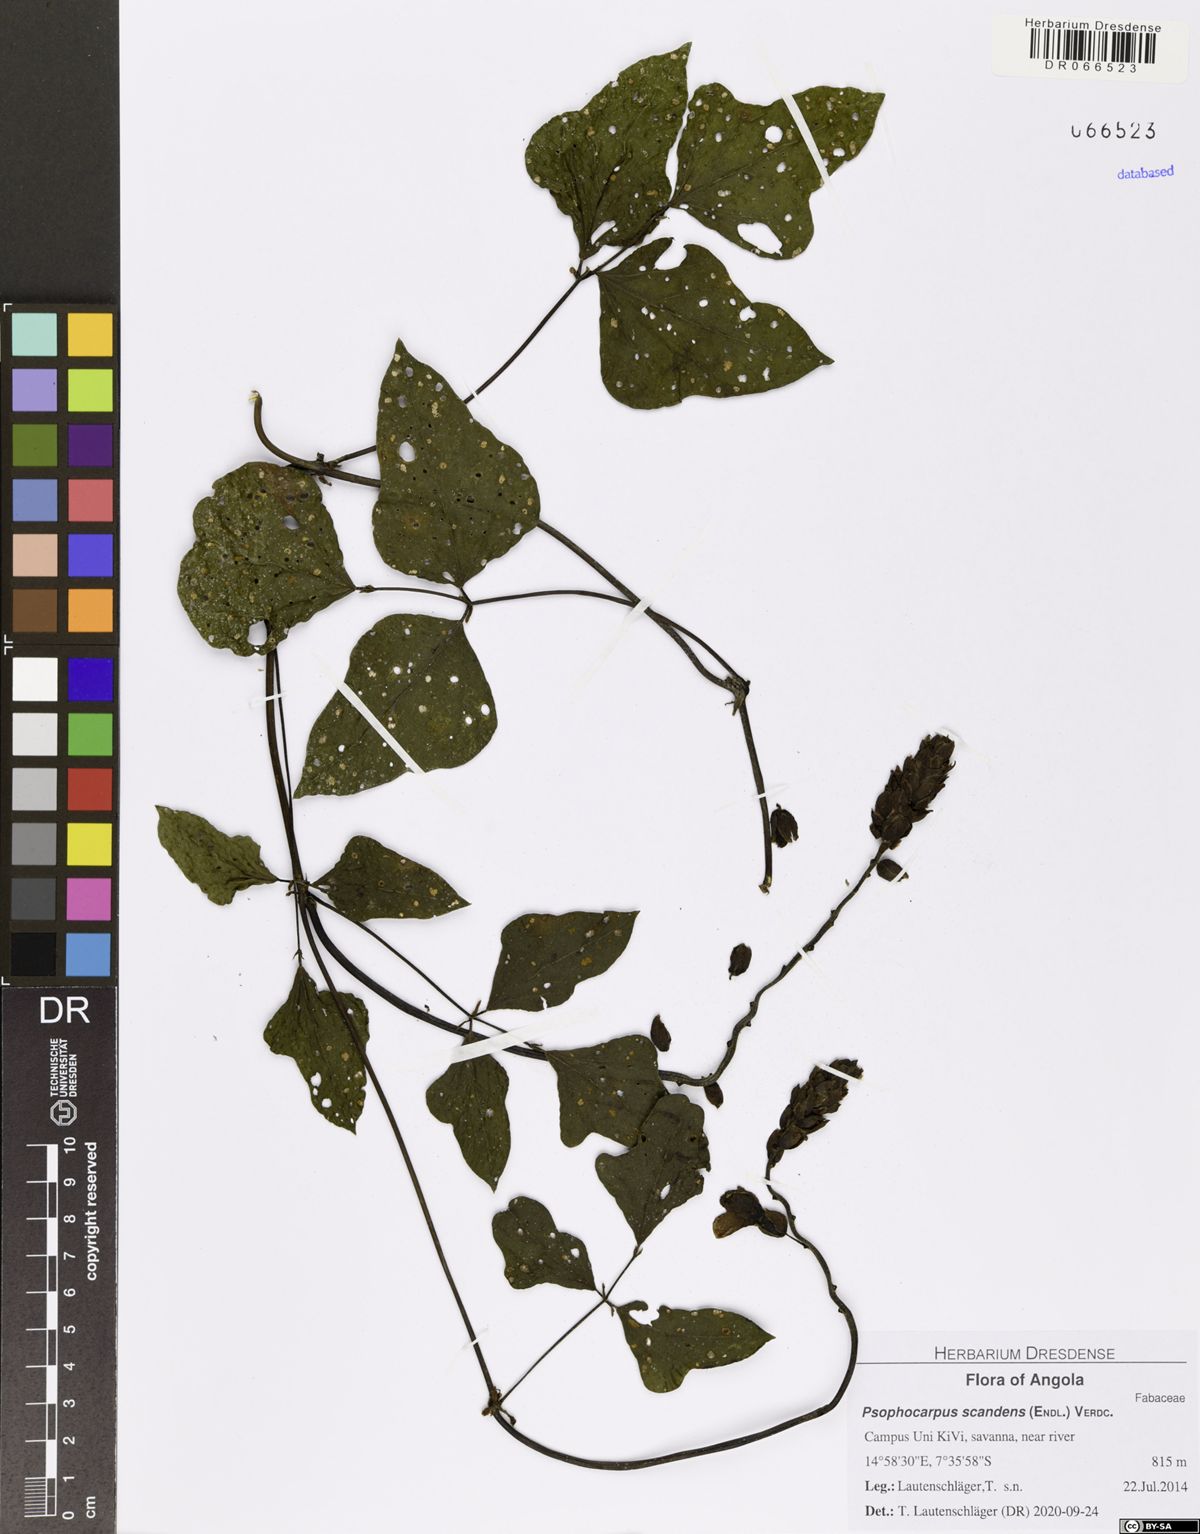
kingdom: Plantae
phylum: Tracheophyta
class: Magnoliopsida
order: Fabales
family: Fabaceae
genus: Psophocarpus
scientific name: Psophocarpus scandens
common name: Tropical african winged-bean
